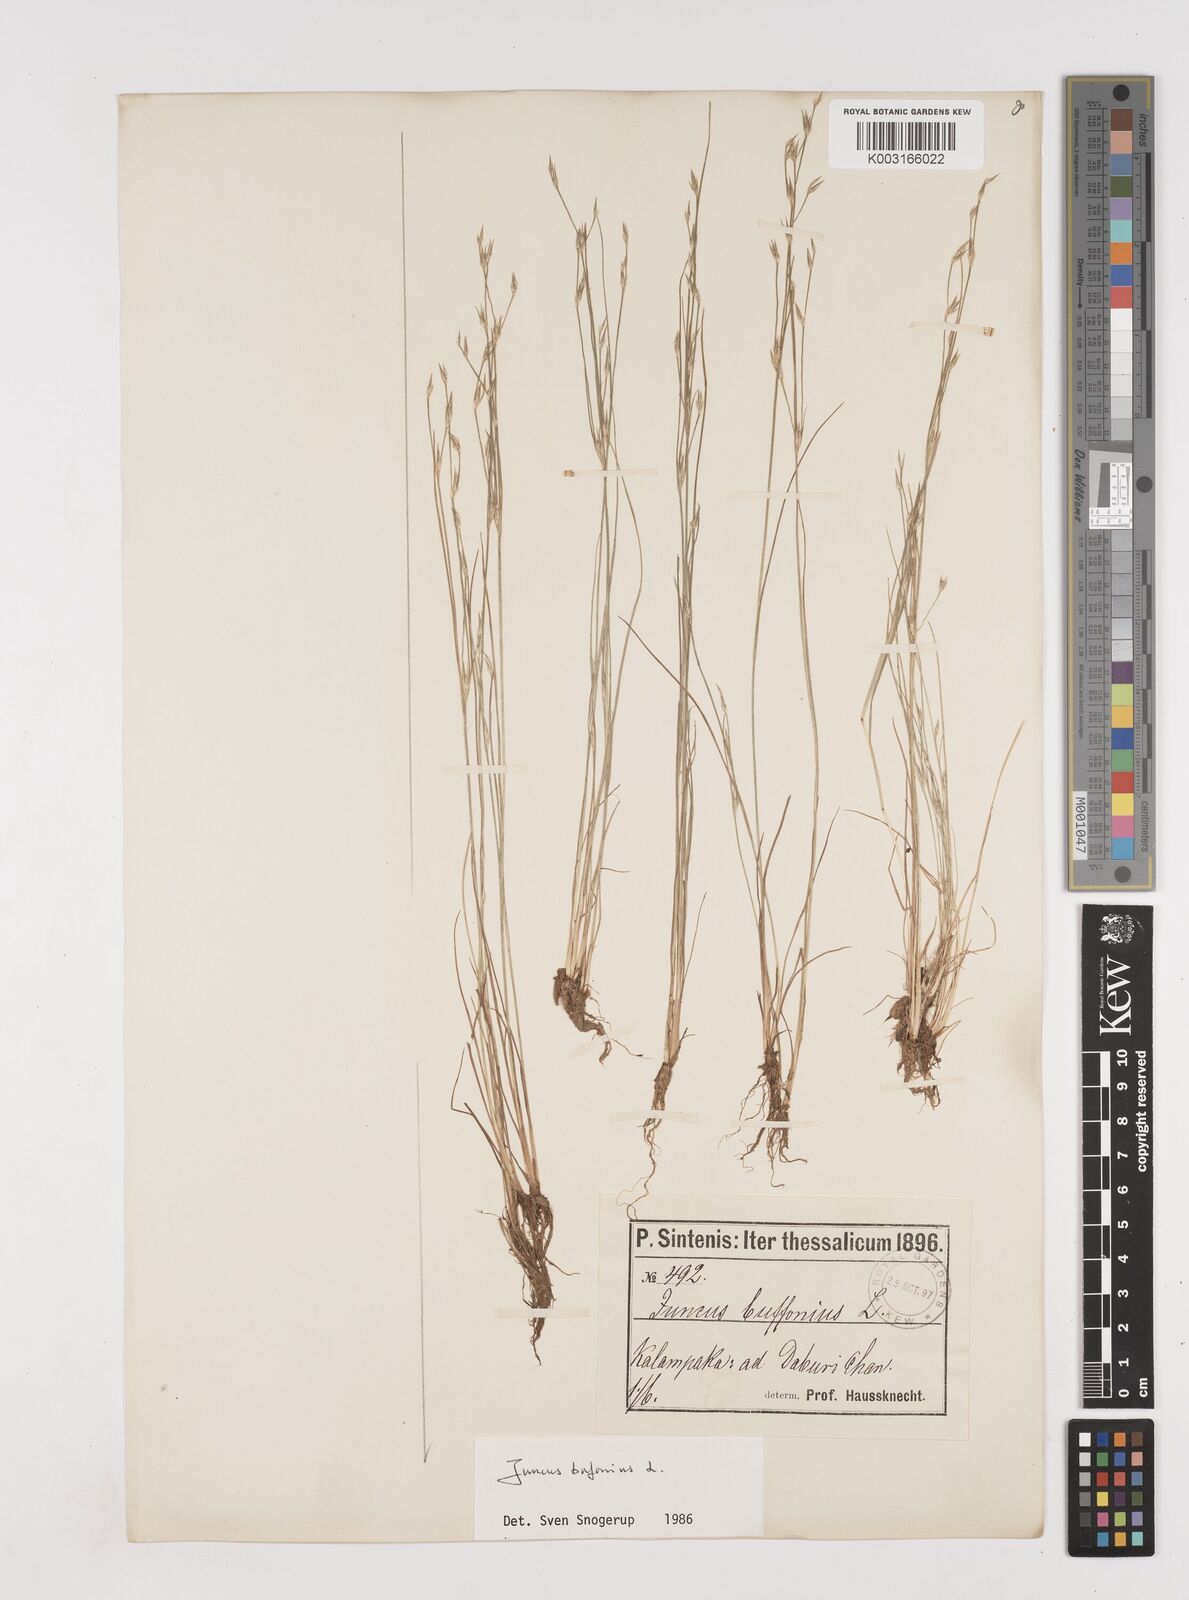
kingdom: Plantae
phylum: Tracheophyta
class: Liliopsida
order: Poales
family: Juncaceae
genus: Juncus
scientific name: Juncus bufonius
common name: Toad rush
